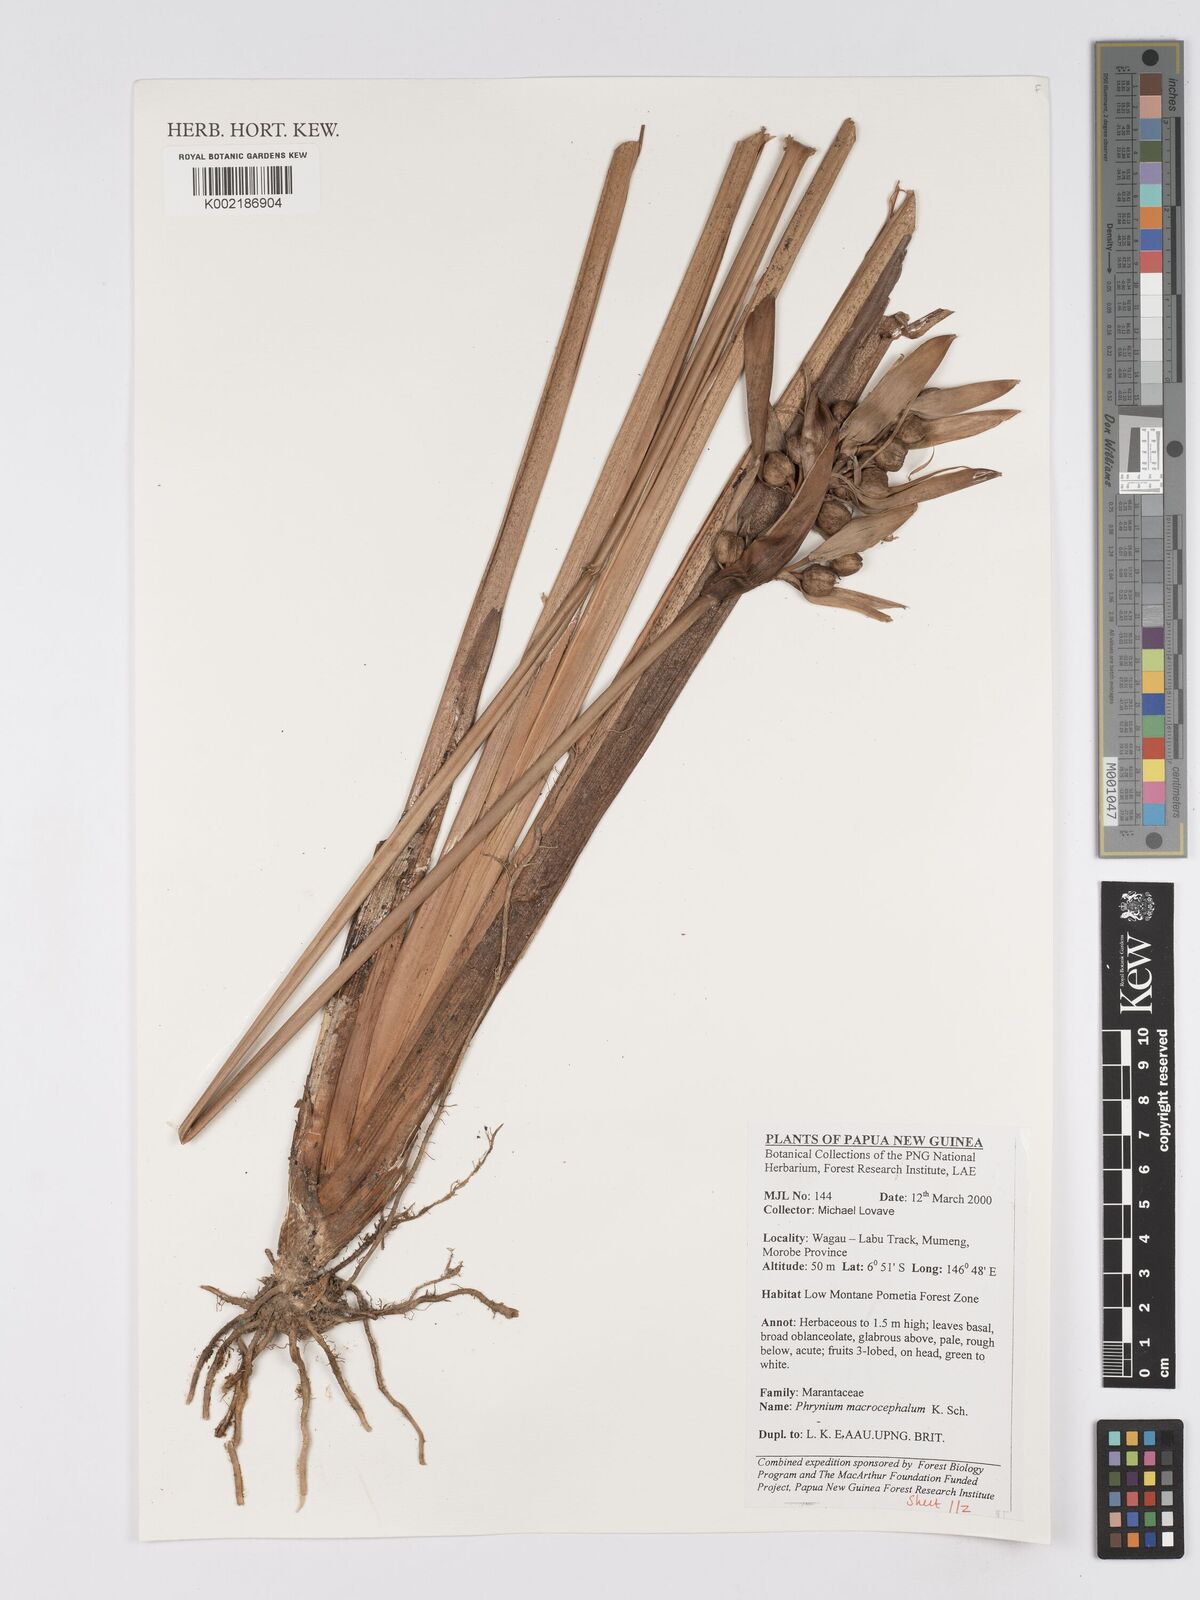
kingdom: Plantae
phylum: Tracheophyta
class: Liliopsida
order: Zingiberales
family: Marantaceae
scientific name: Marantaceae
